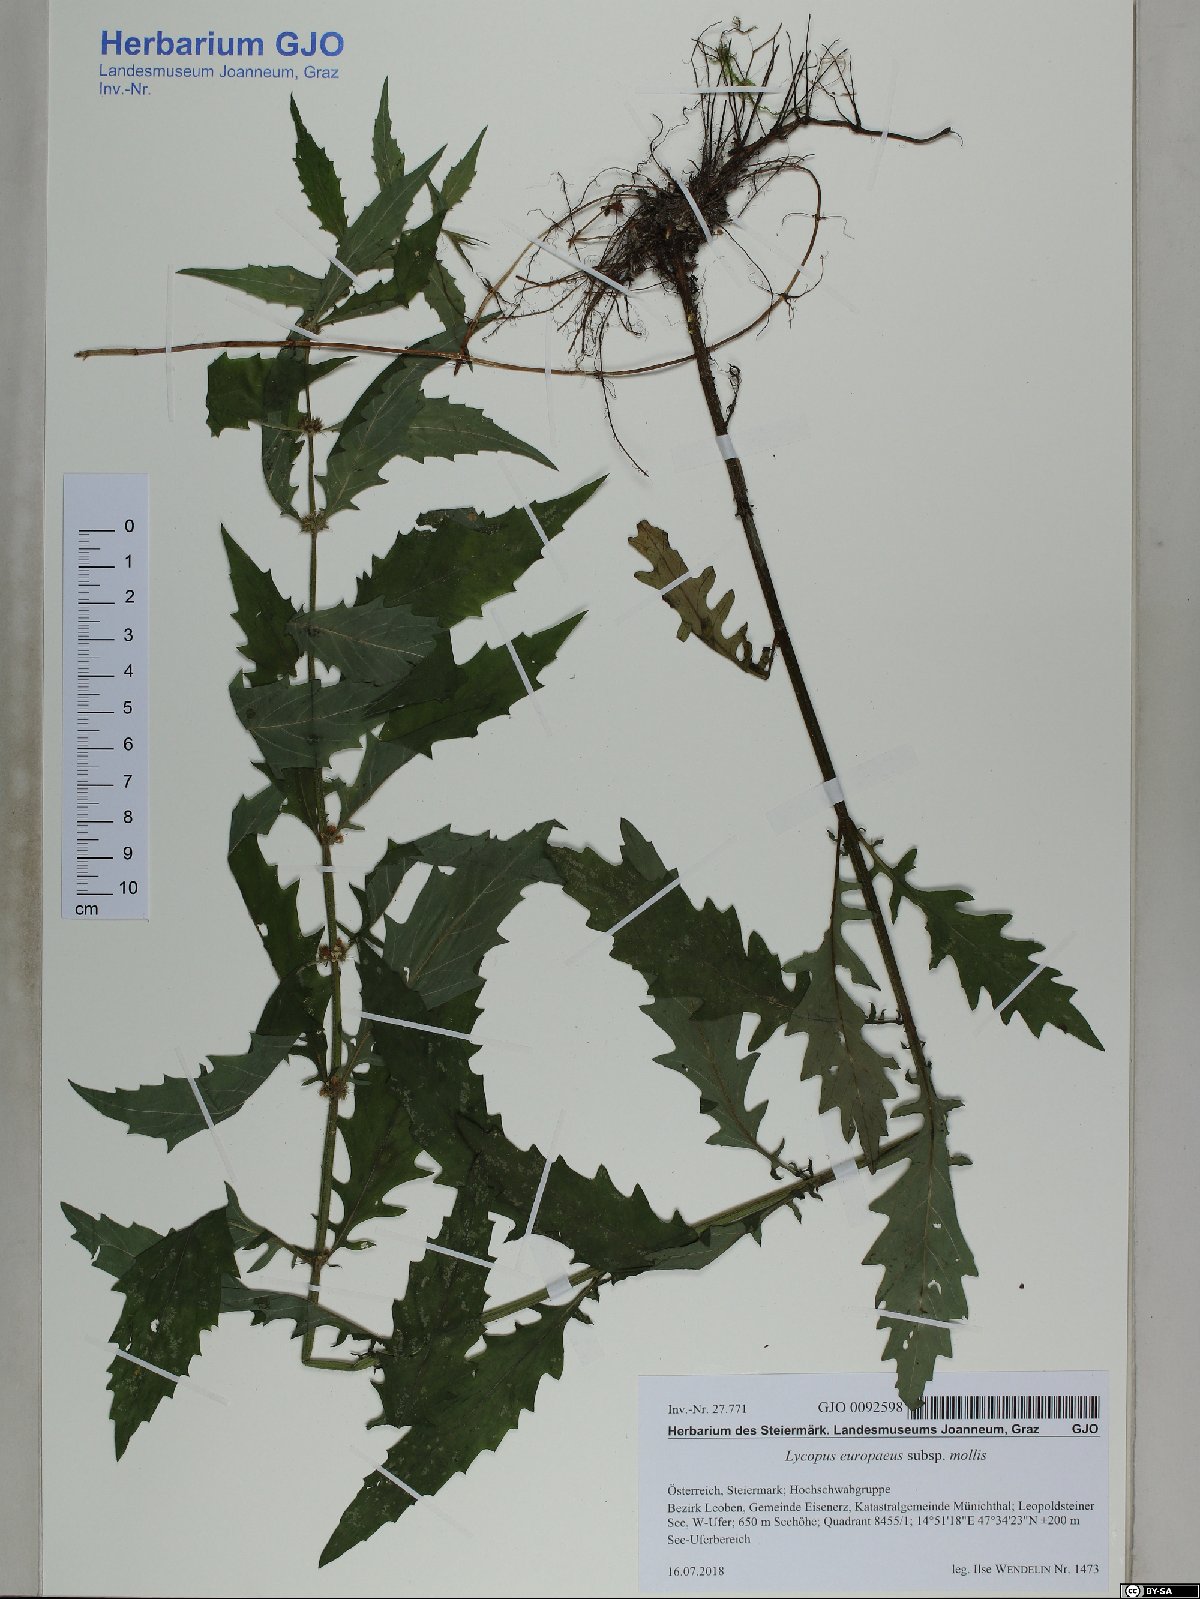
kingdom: Plantae
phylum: Tracheophyta
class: Magnoliopsida
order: Lamiales
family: Lamiaceae
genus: Lycopus
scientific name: Lycopus europaeus
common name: European bugleweed
